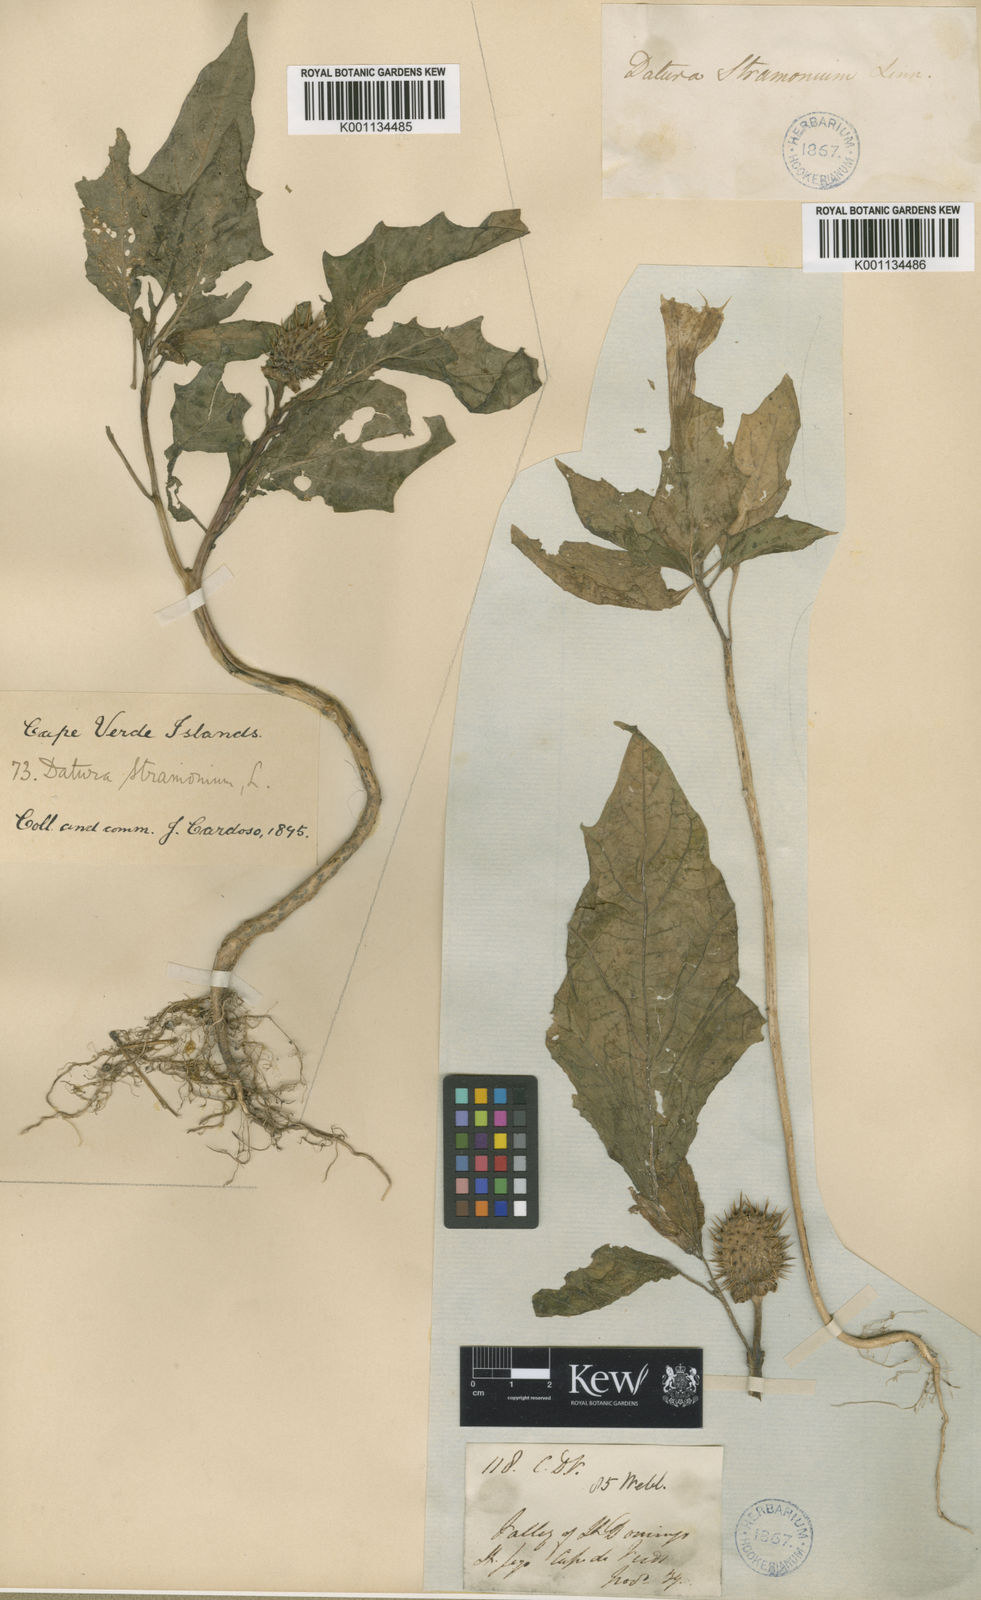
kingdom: Plantae
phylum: Tracheophyta
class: Magnoliopsida
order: Solanales
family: Solanaceae
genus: Datura
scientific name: Datura stramonium
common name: Thorn-apple
